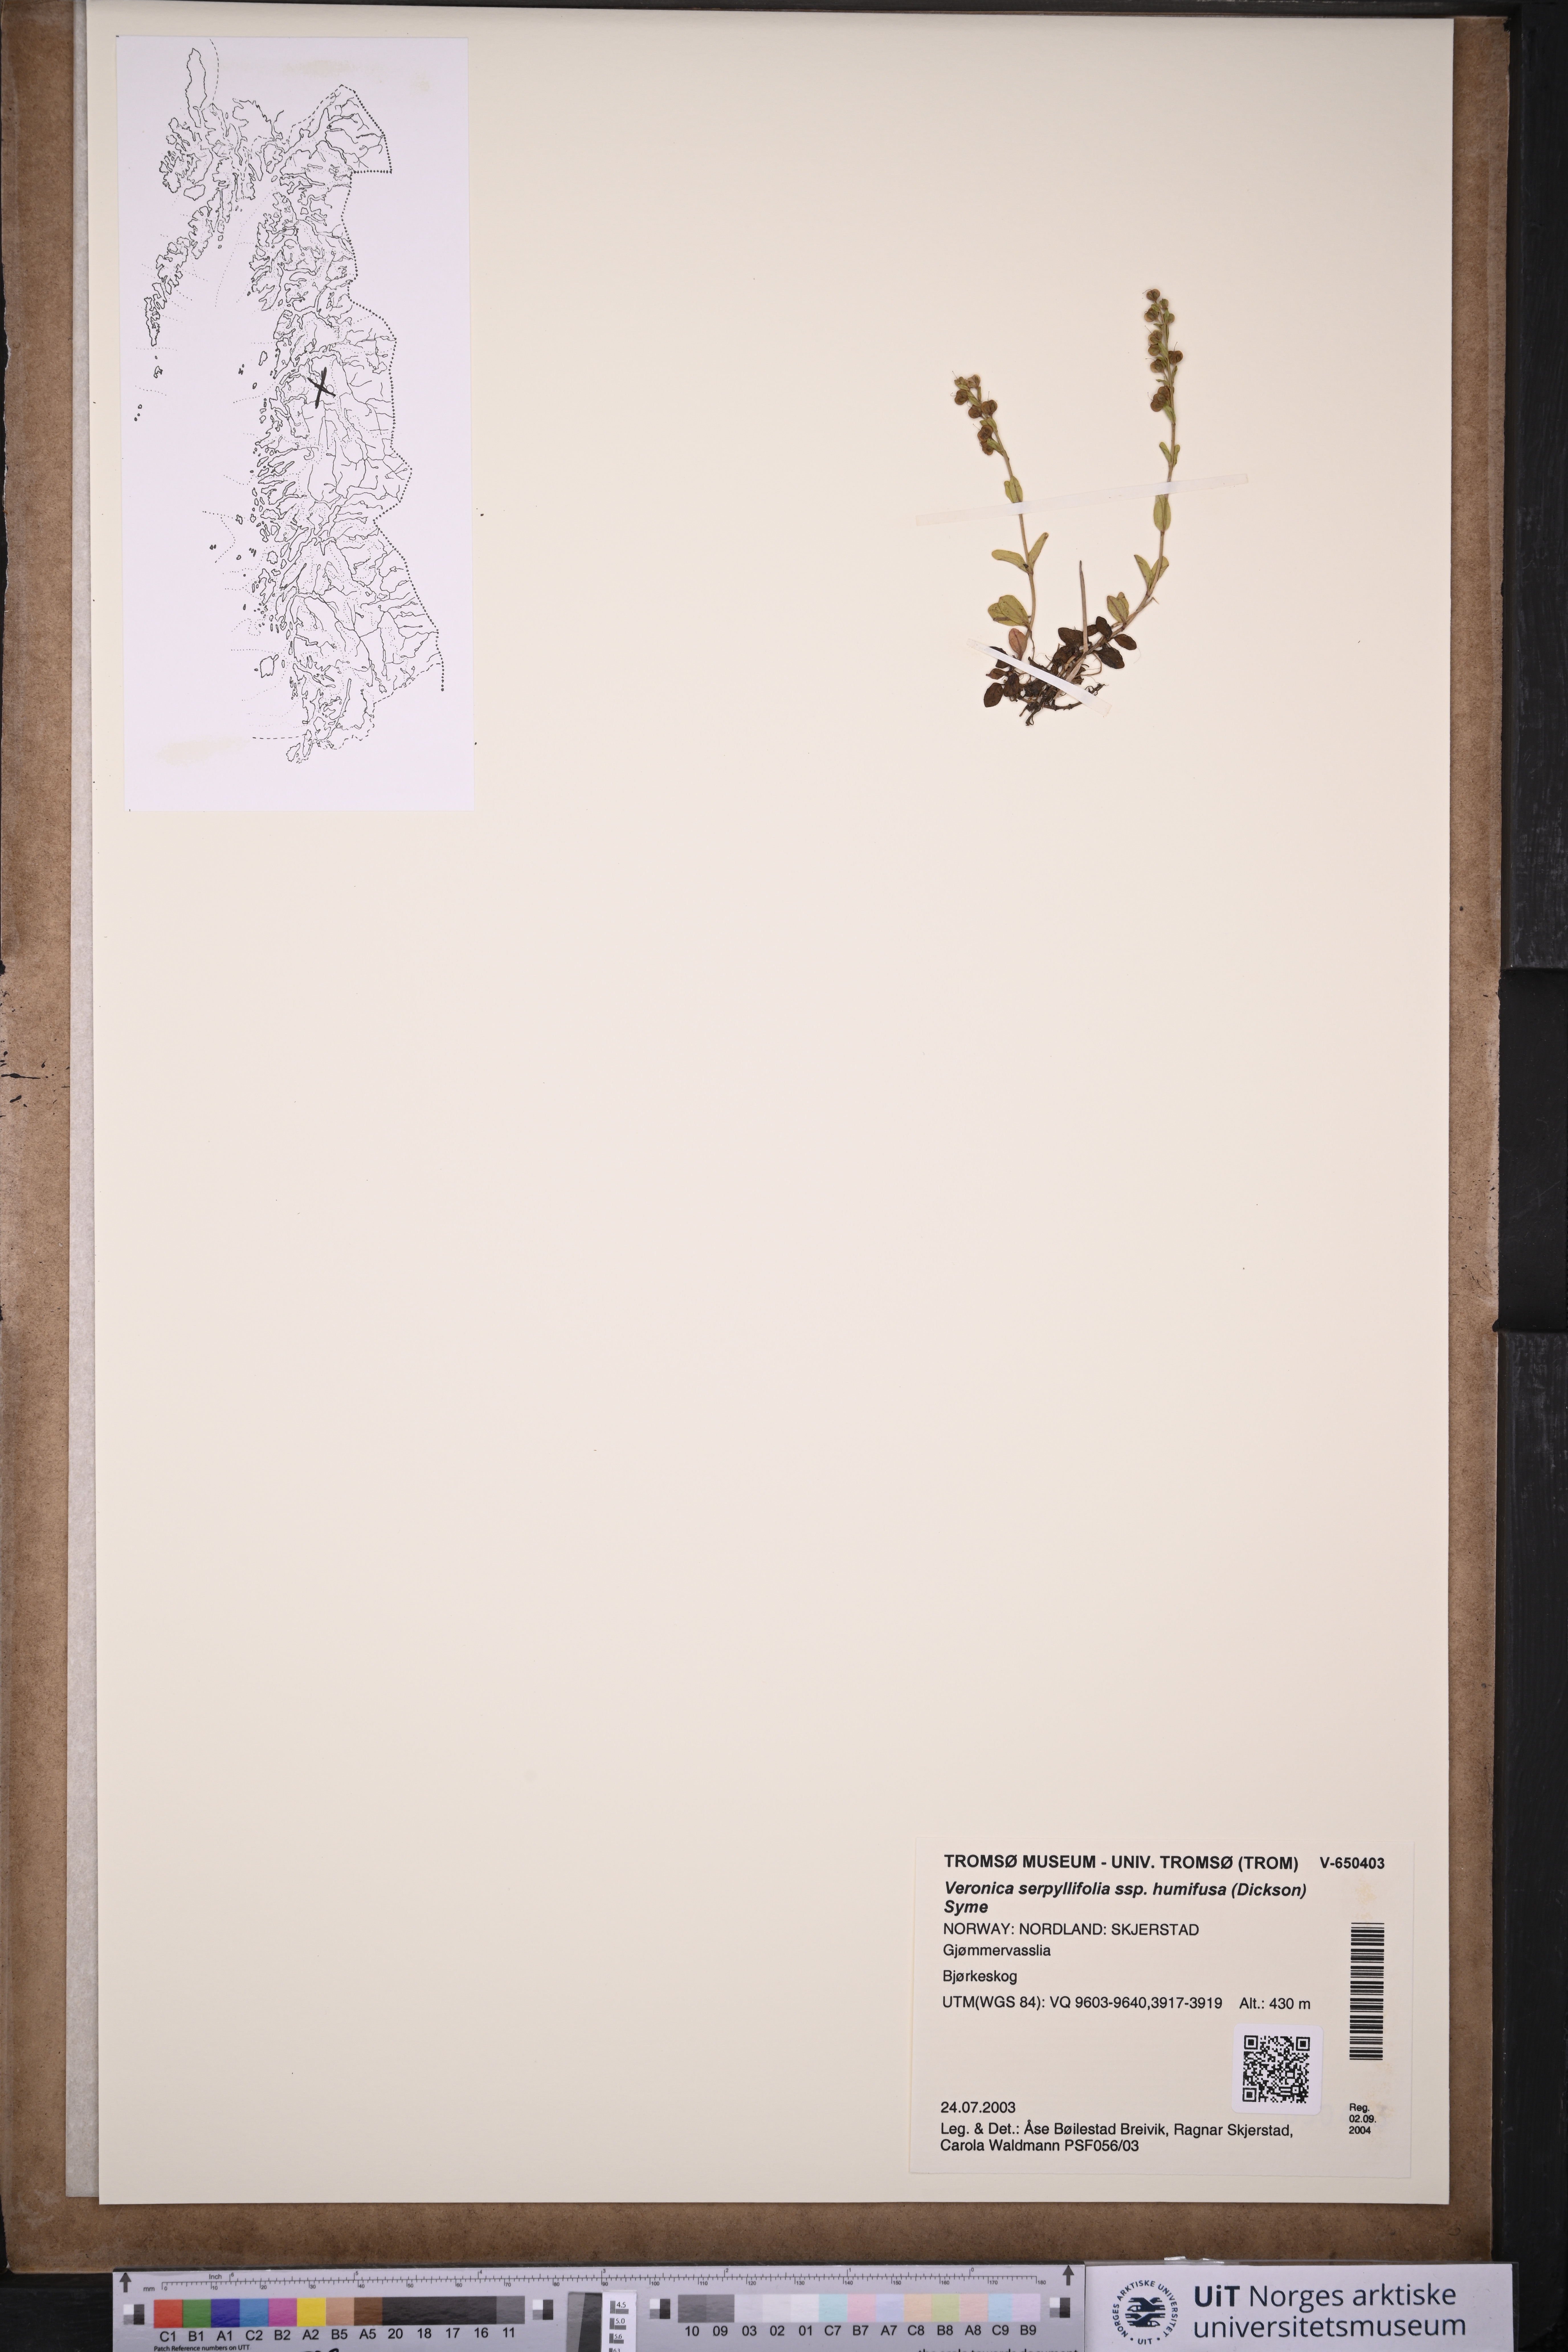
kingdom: Plantae
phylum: Tracheophyta
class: Magnoliopsida
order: Lamiales
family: Plantaginaceae
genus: Veronica
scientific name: Veronica serpyllifolia
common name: Thyme-leaved speedwell
